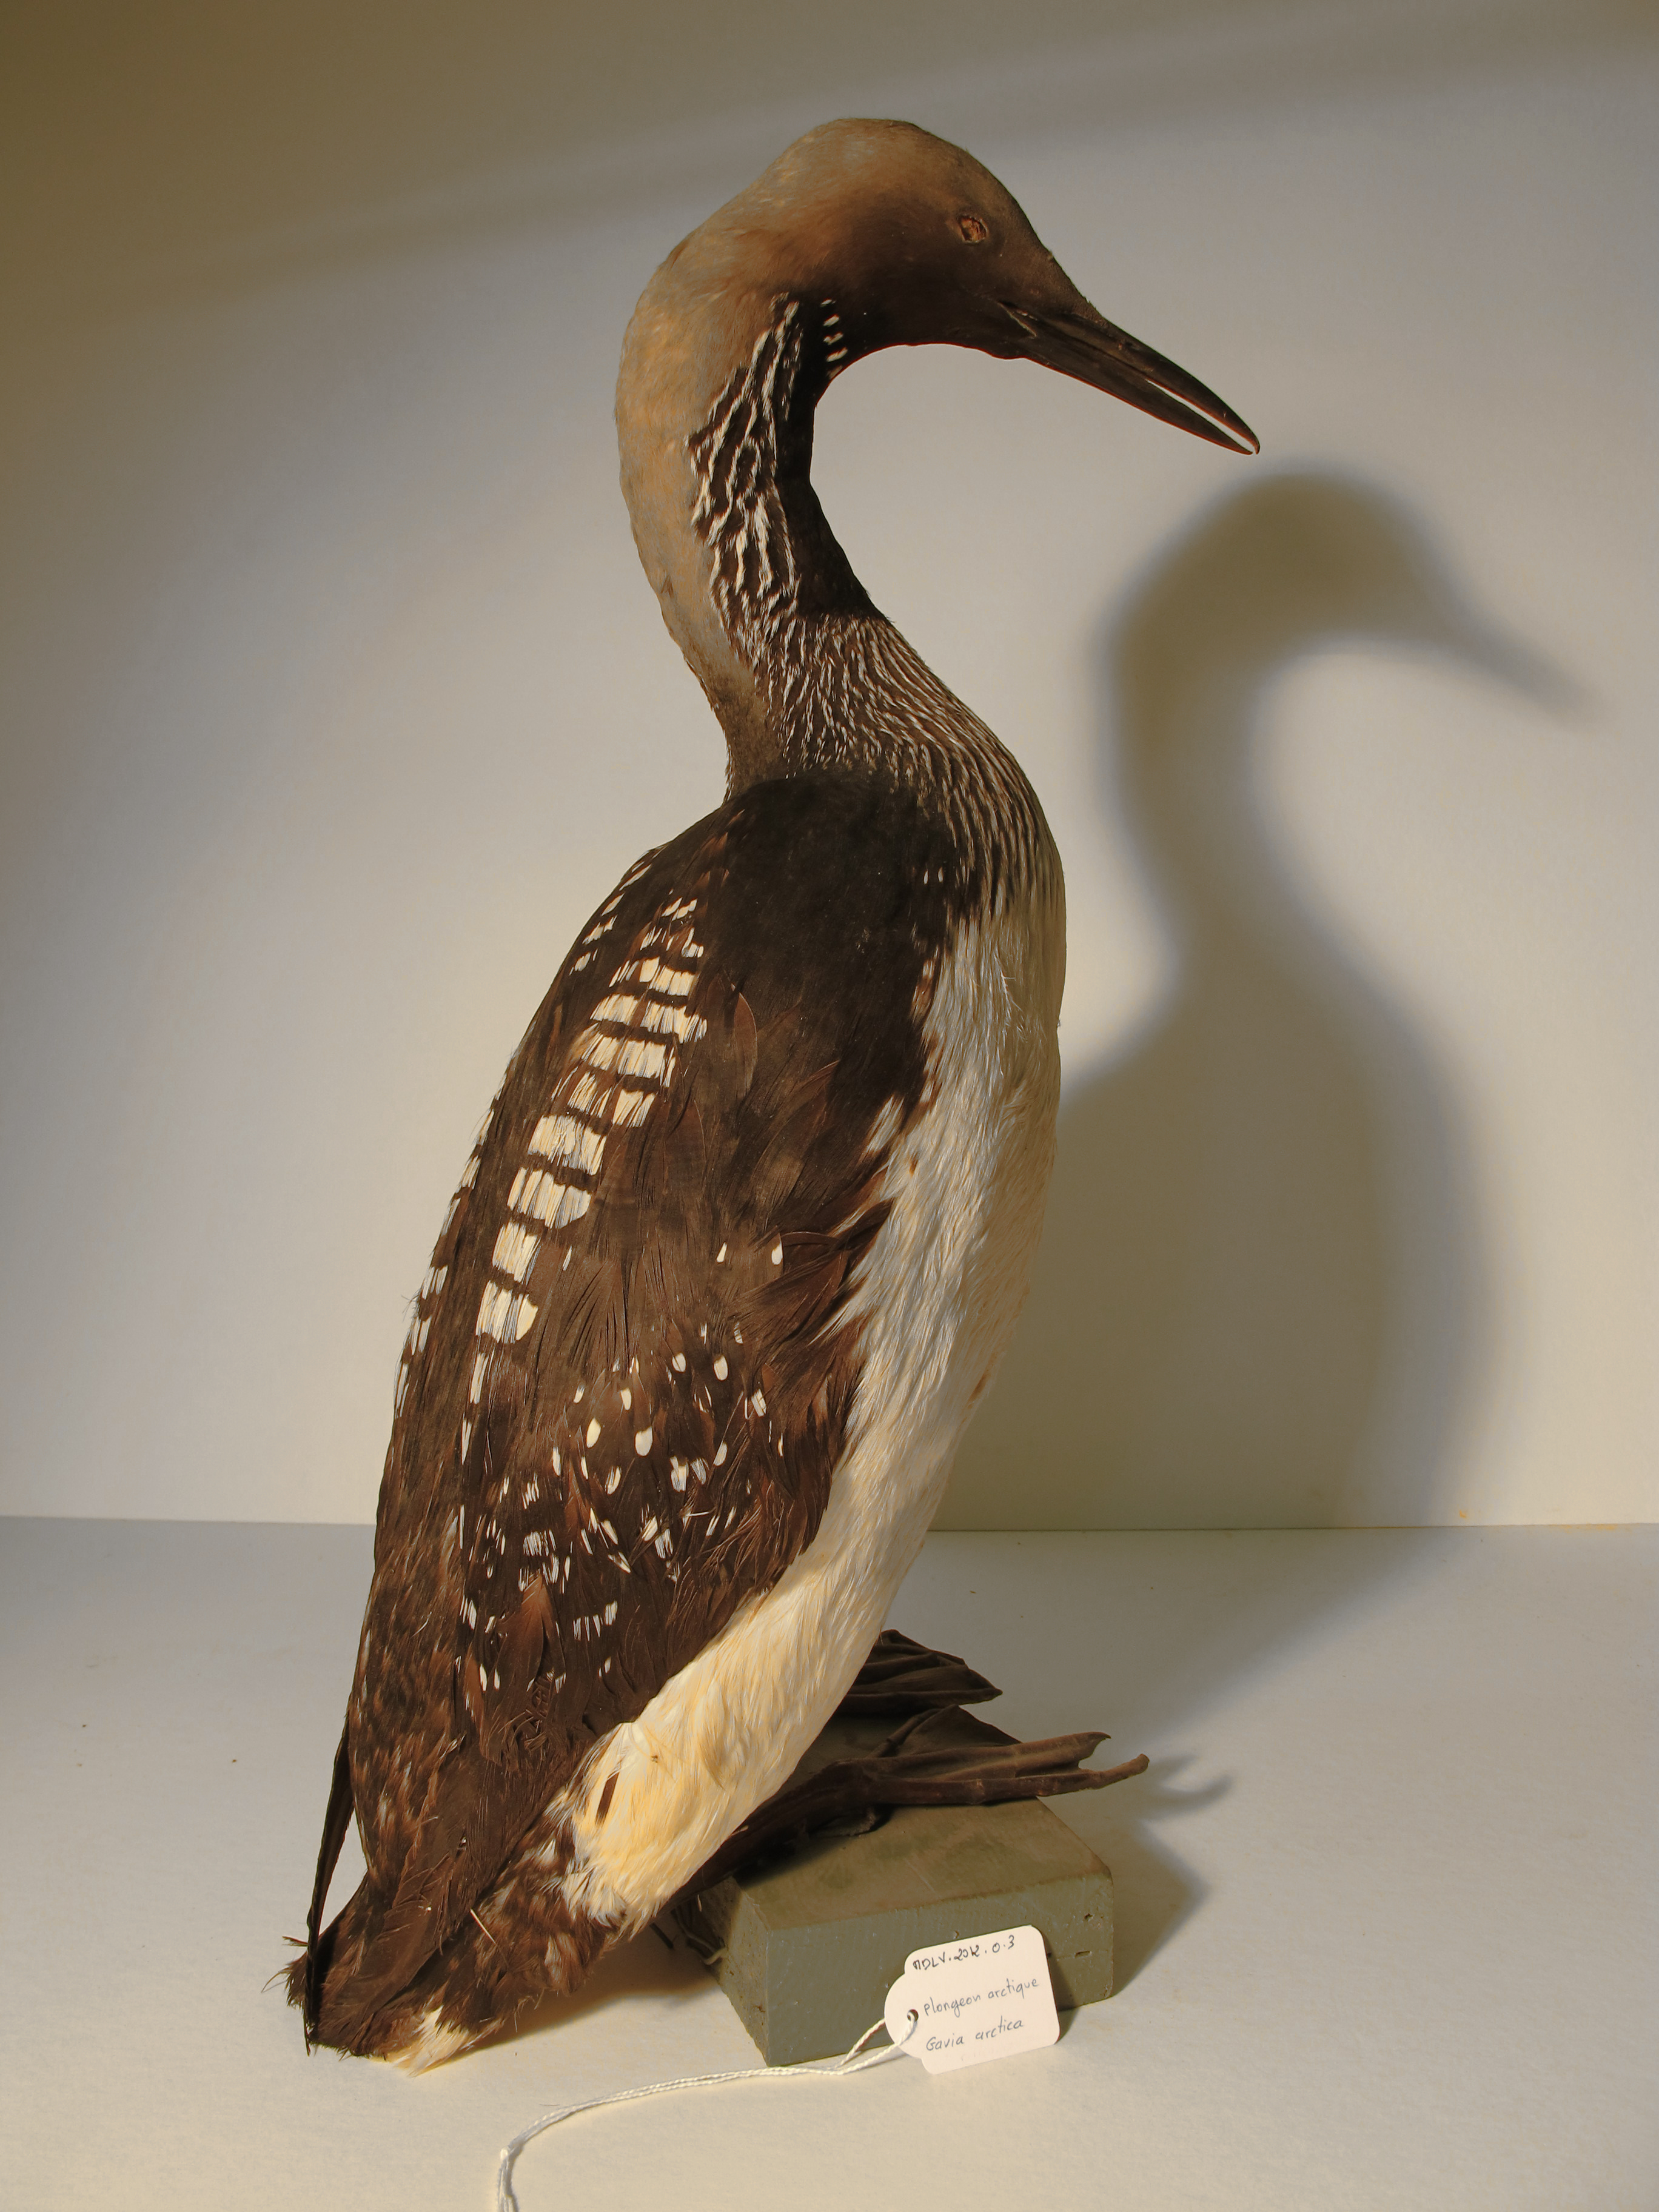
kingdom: Animalia
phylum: Chordata
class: Aves
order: Gaviiformes
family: Gaviidae
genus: Gavia
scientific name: Gavia arctica
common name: Black-throated Diver
